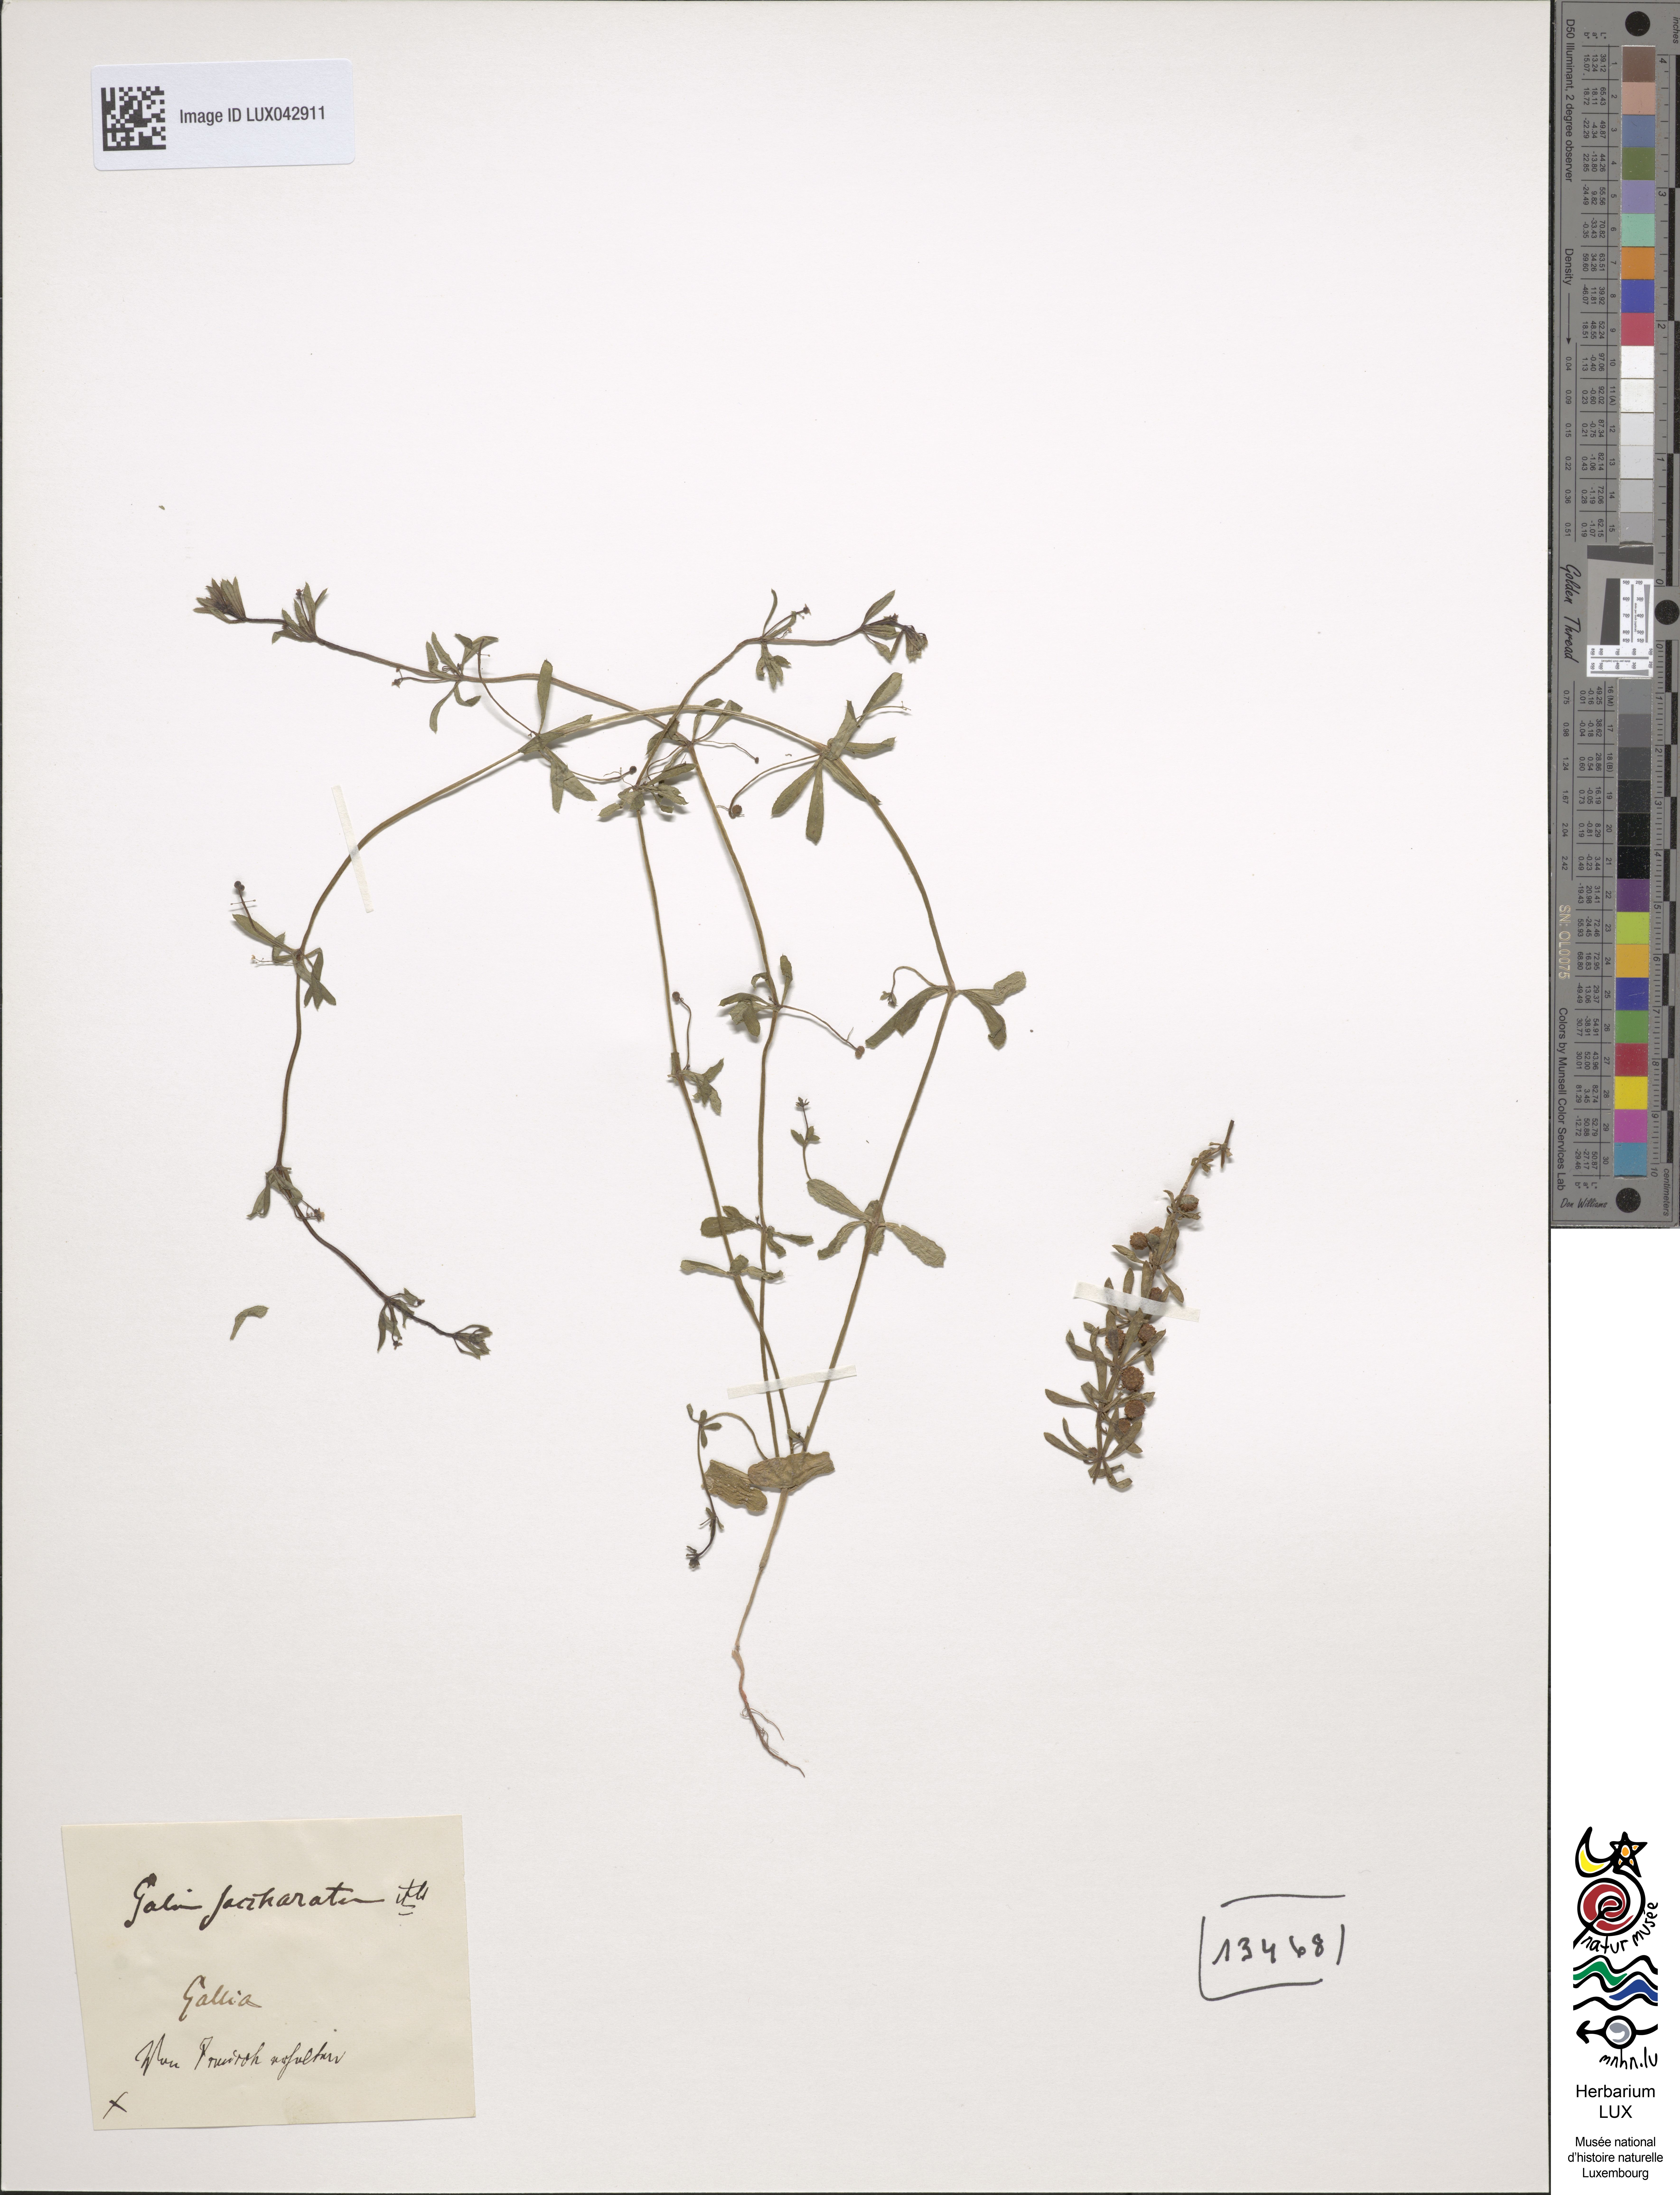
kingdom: Plantae
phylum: Tracheophyta
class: Magnoliopsida
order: Gentianales
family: Rubiaceae
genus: Galium
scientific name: Galium verrucosum
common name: Warty bedstraw
